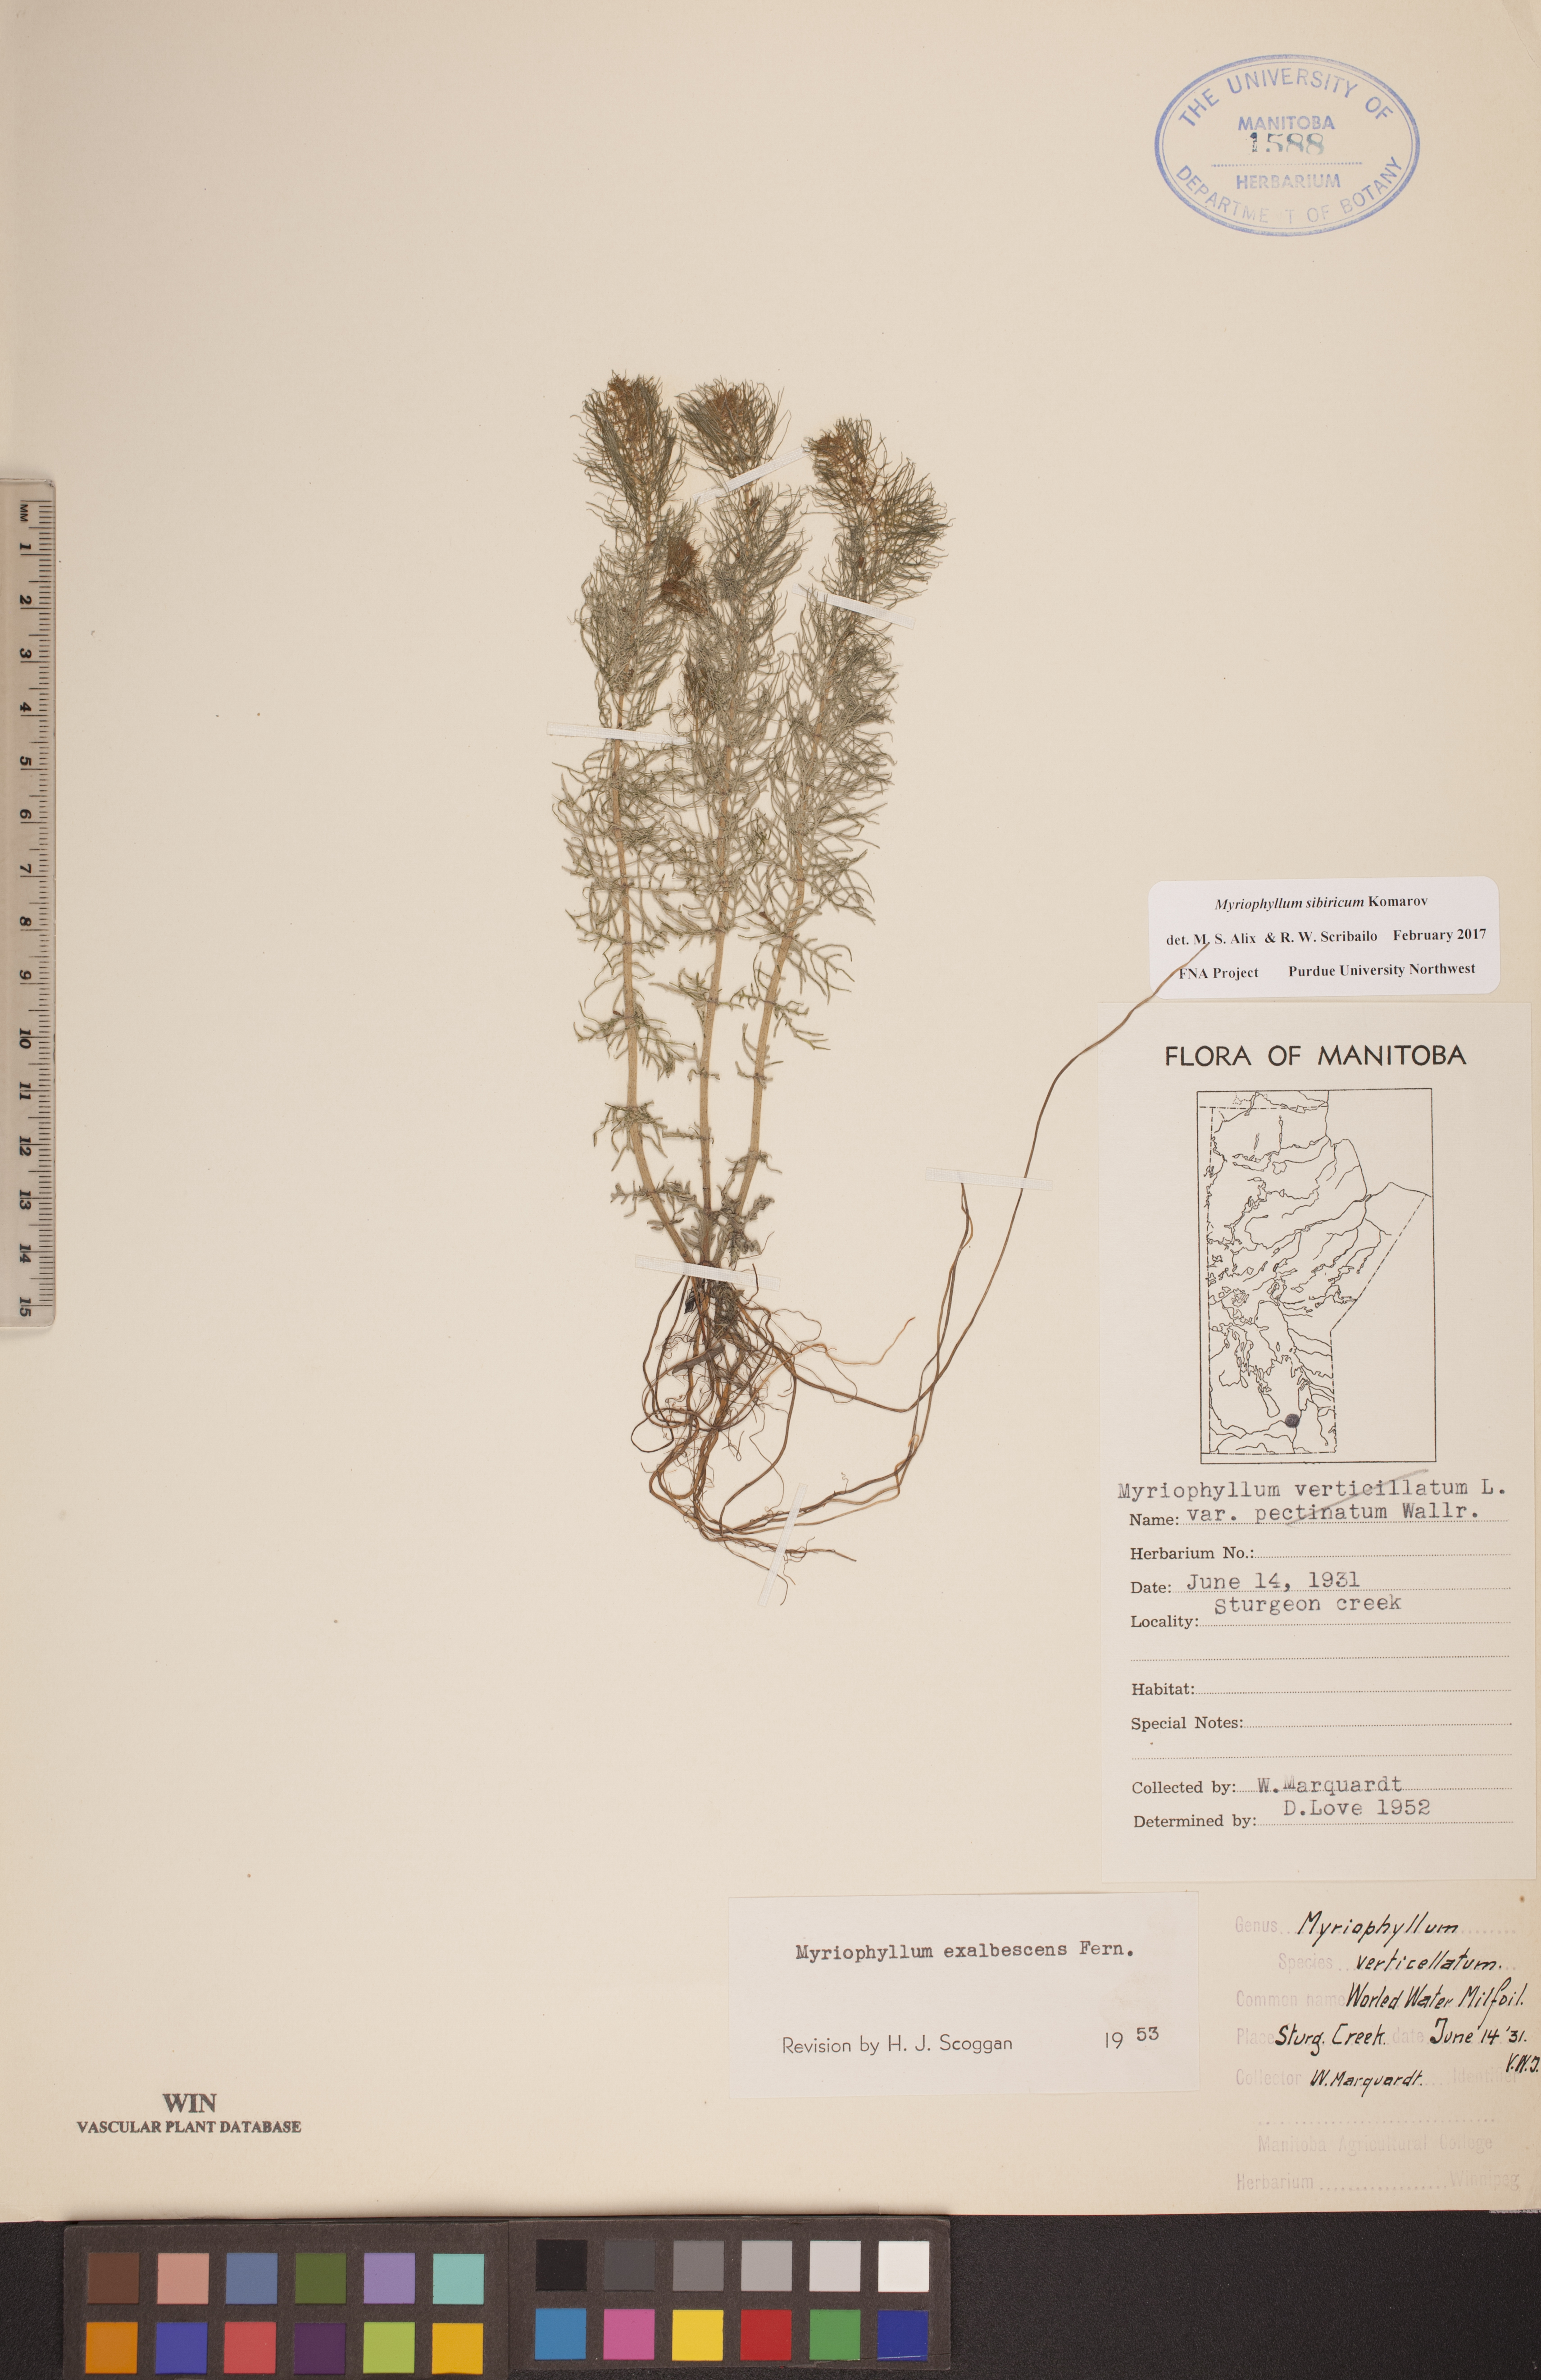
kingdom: Plantae
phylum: Tracheophyta
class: Magnoliopsida
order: Saxifragales
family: Haloragaceae
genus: Myriophyllum
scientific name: Myriophyllum sibiricum
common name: Siberian water-milfoil
